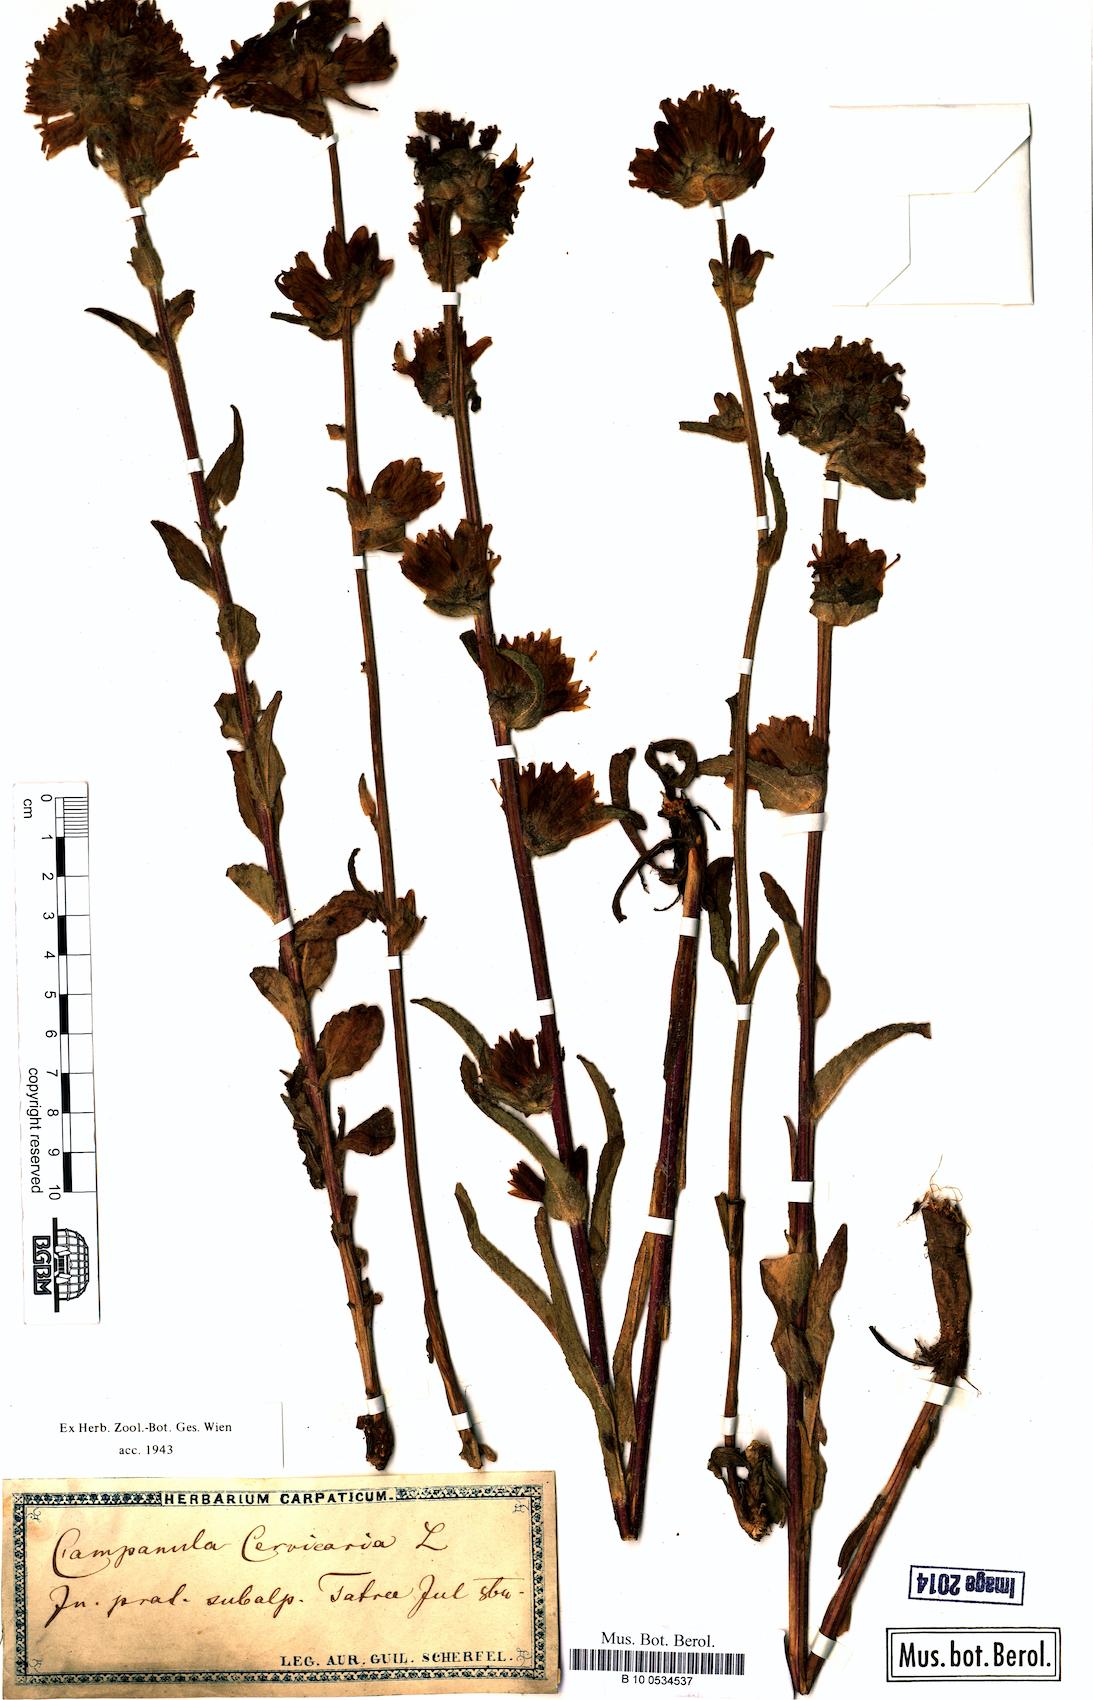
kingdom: Plantae
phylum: Tracheophyta
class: Magnoliopsida
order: Asterales
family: Campanulaceae
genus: Campanula
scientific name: Campanula cervicaria
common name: Bristly bellflower
